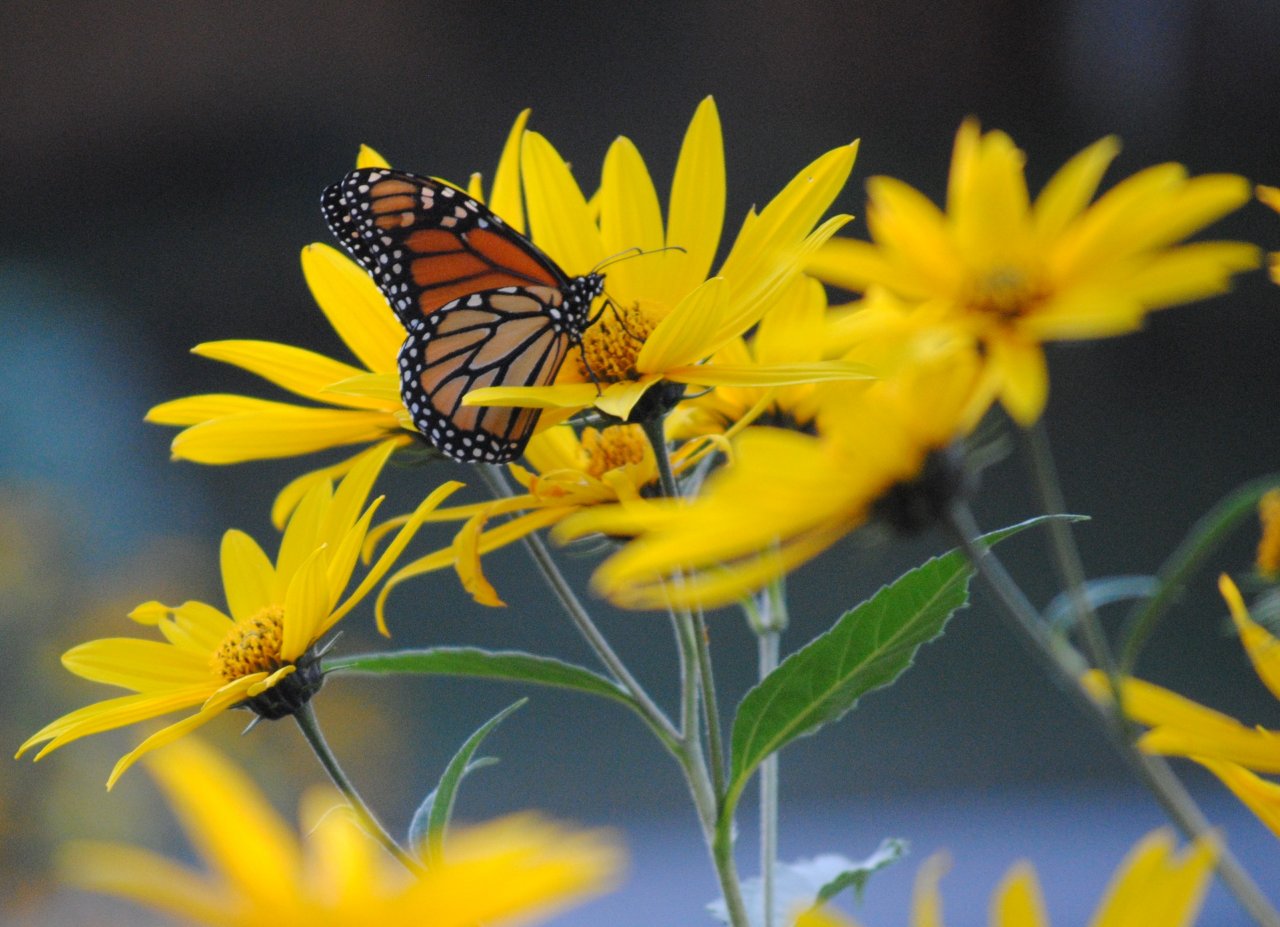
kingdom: Animalia
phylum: Arthropoda
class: Insecta
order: Lepidoptera
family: Nymphalidae
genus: Danaus
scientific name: Danaus plexippus
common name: Monarch
